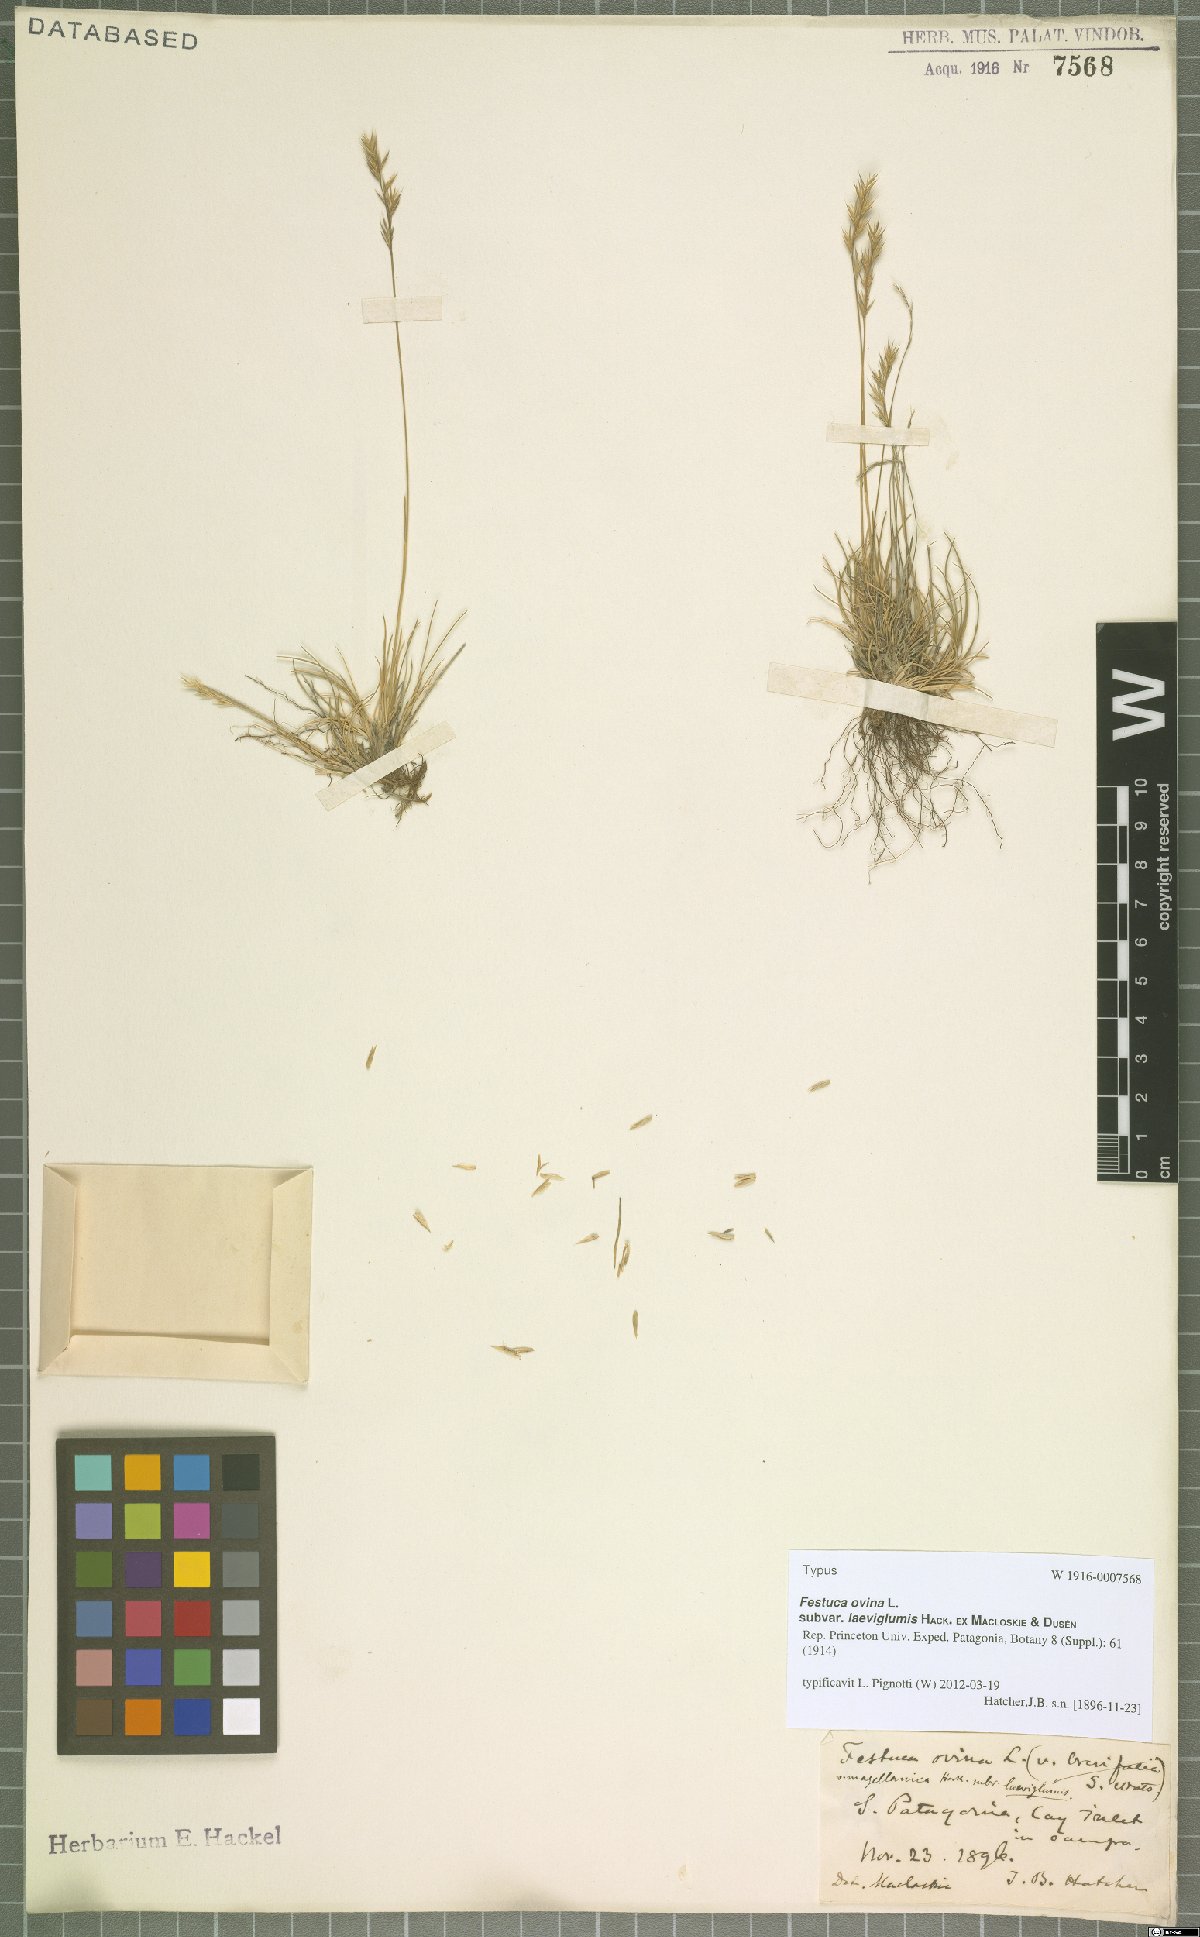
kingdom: Plantae
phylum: Tracheophyta
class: Liliopsida
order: Poales
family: Poaceae
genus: Festuca
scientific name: Festuca ovina
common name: Sheep fescue
